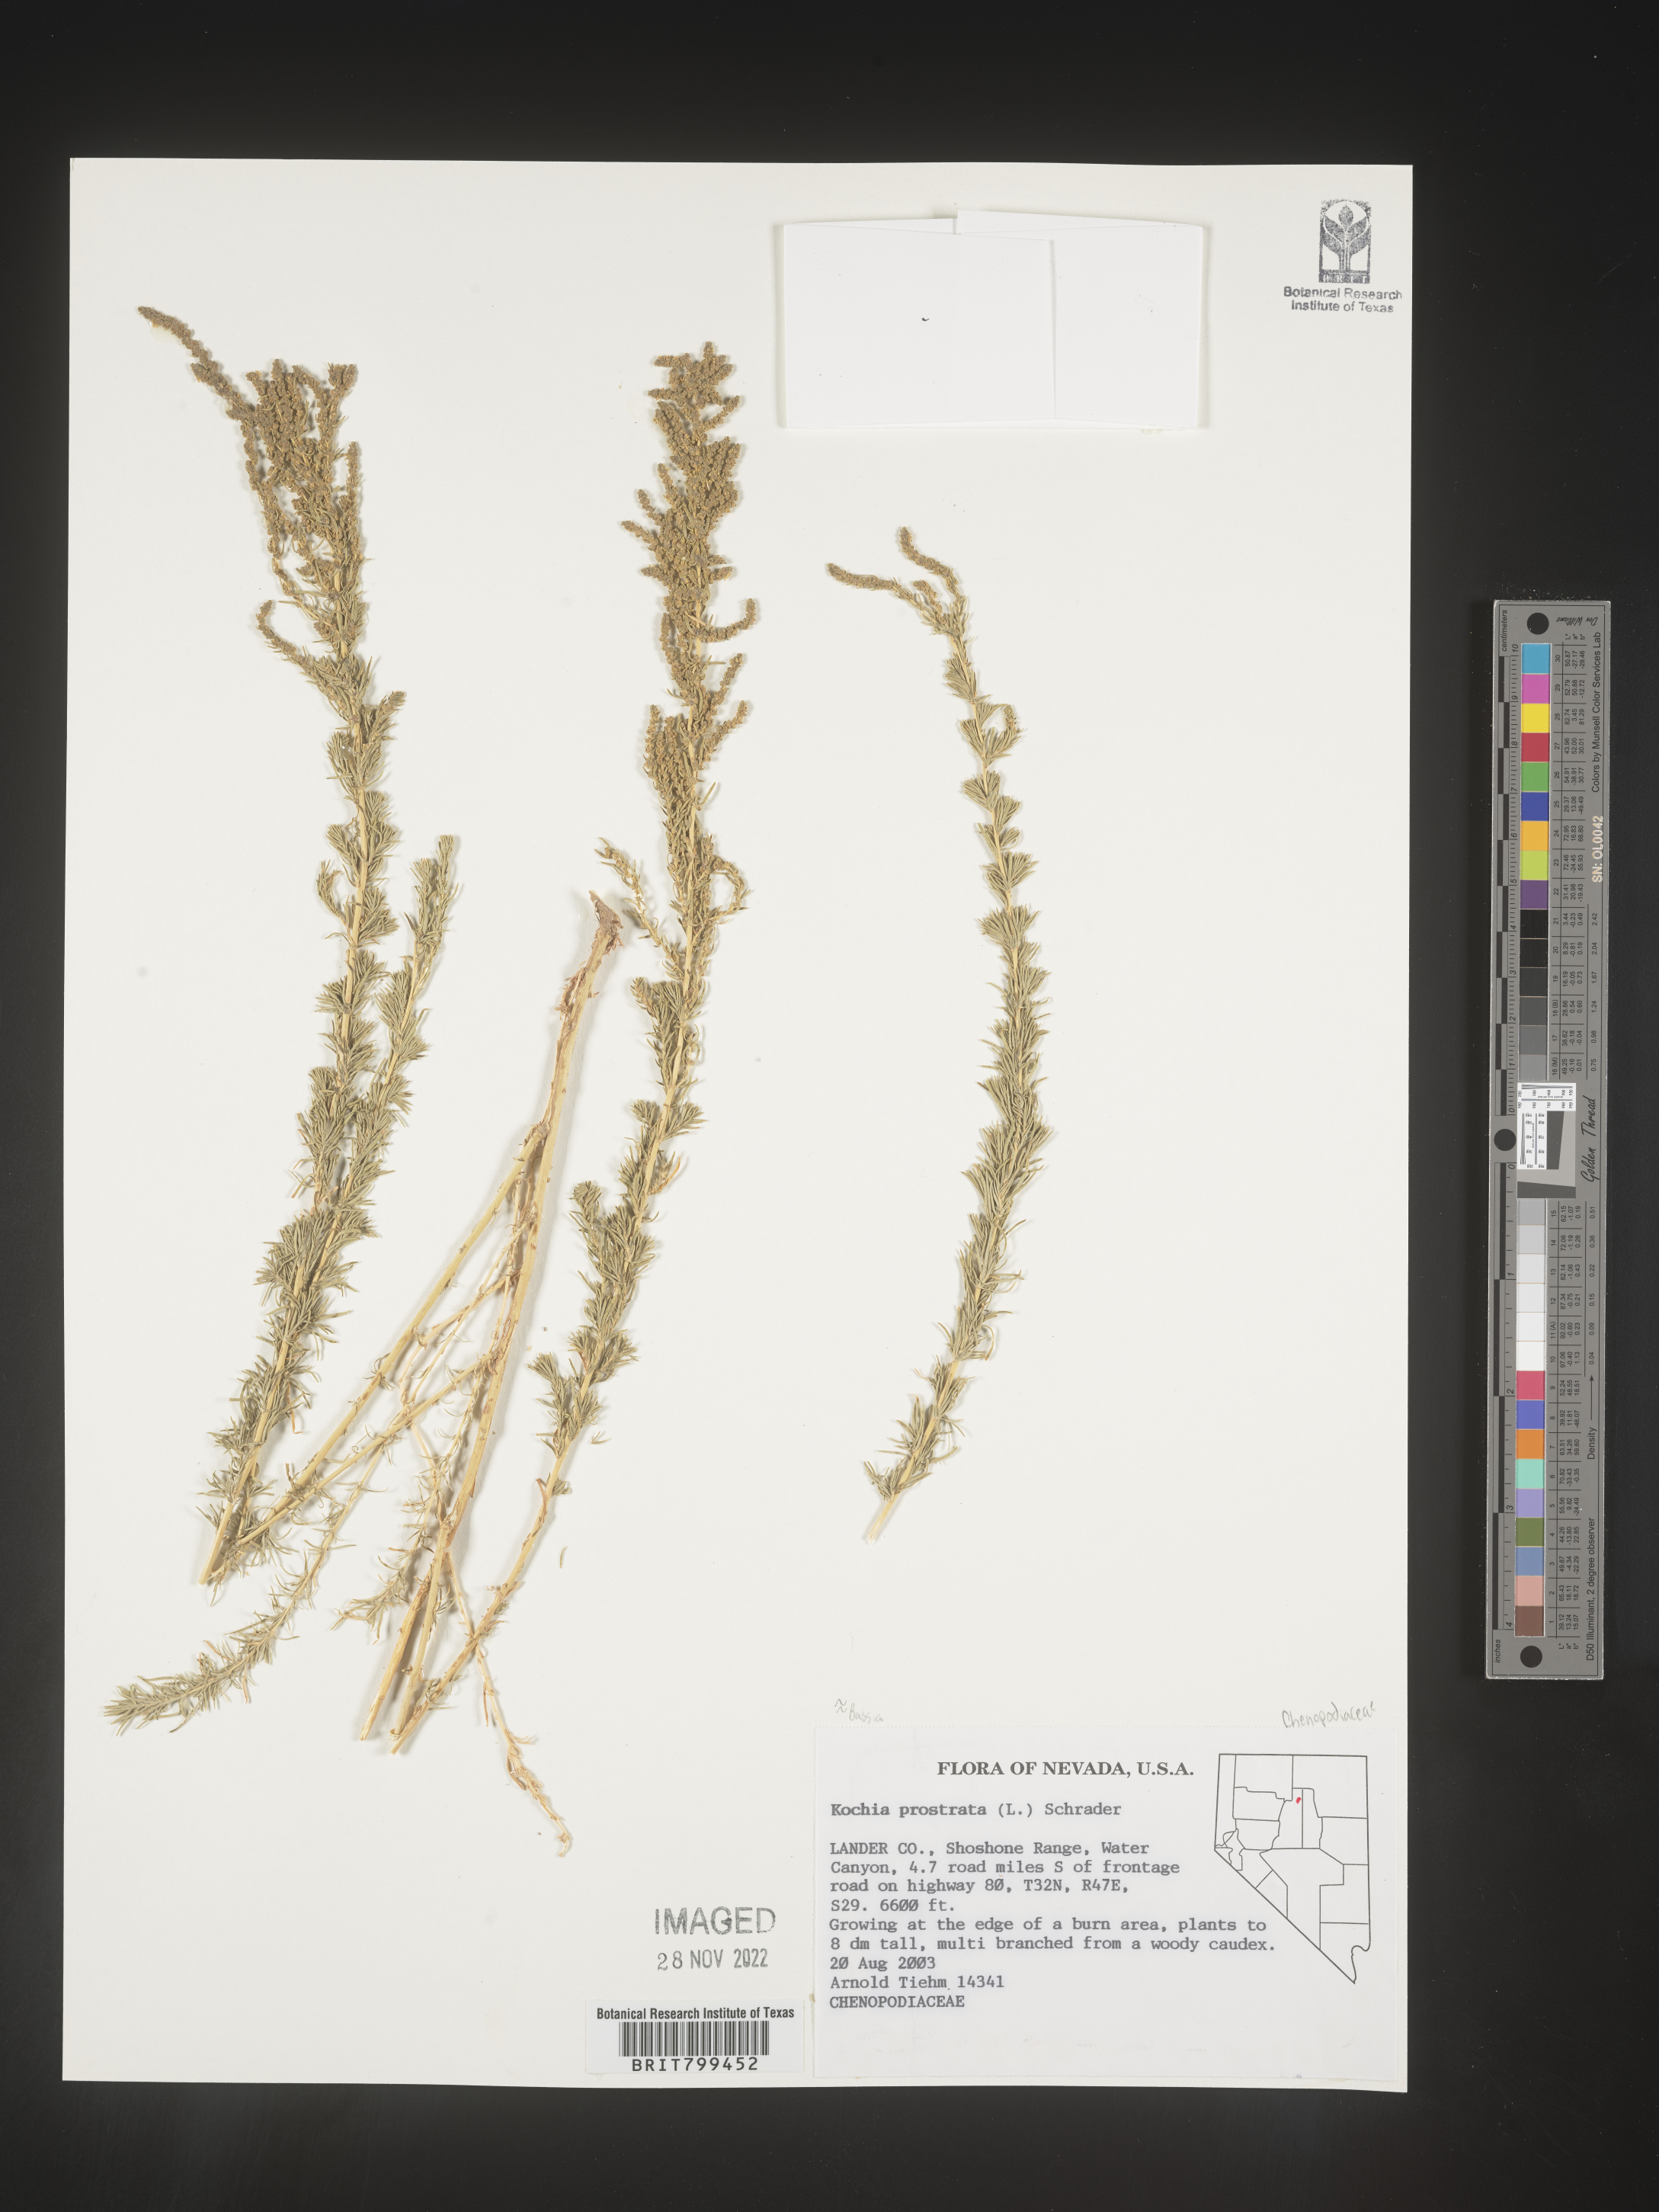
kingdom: Plantae
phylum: Tracheophyta
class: Magnoliopsida
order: Caryophyllales
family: Amaranthaceae
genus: Bassia
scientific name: Bassia
